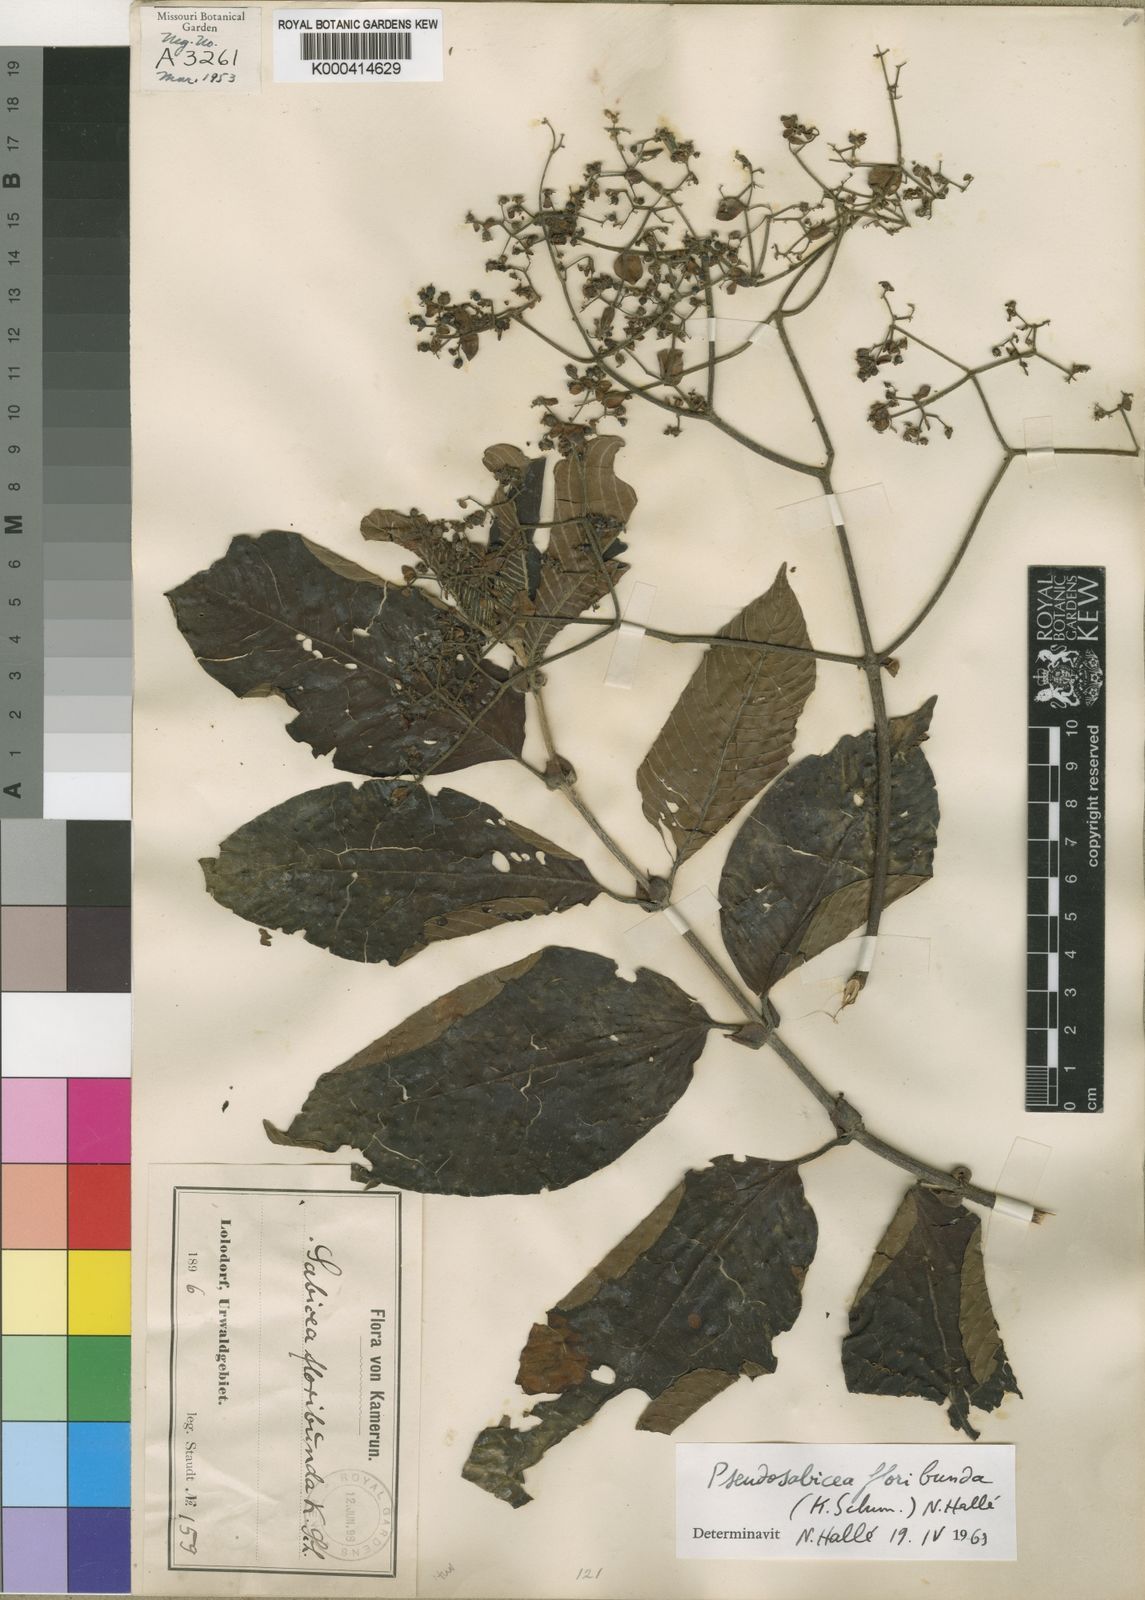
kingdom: Plantae
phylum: Tracheophyta
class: Magnoliopsida
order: Gentianales
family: Rubiaceae
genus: Sabicea
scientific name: Sabicea floribunda
